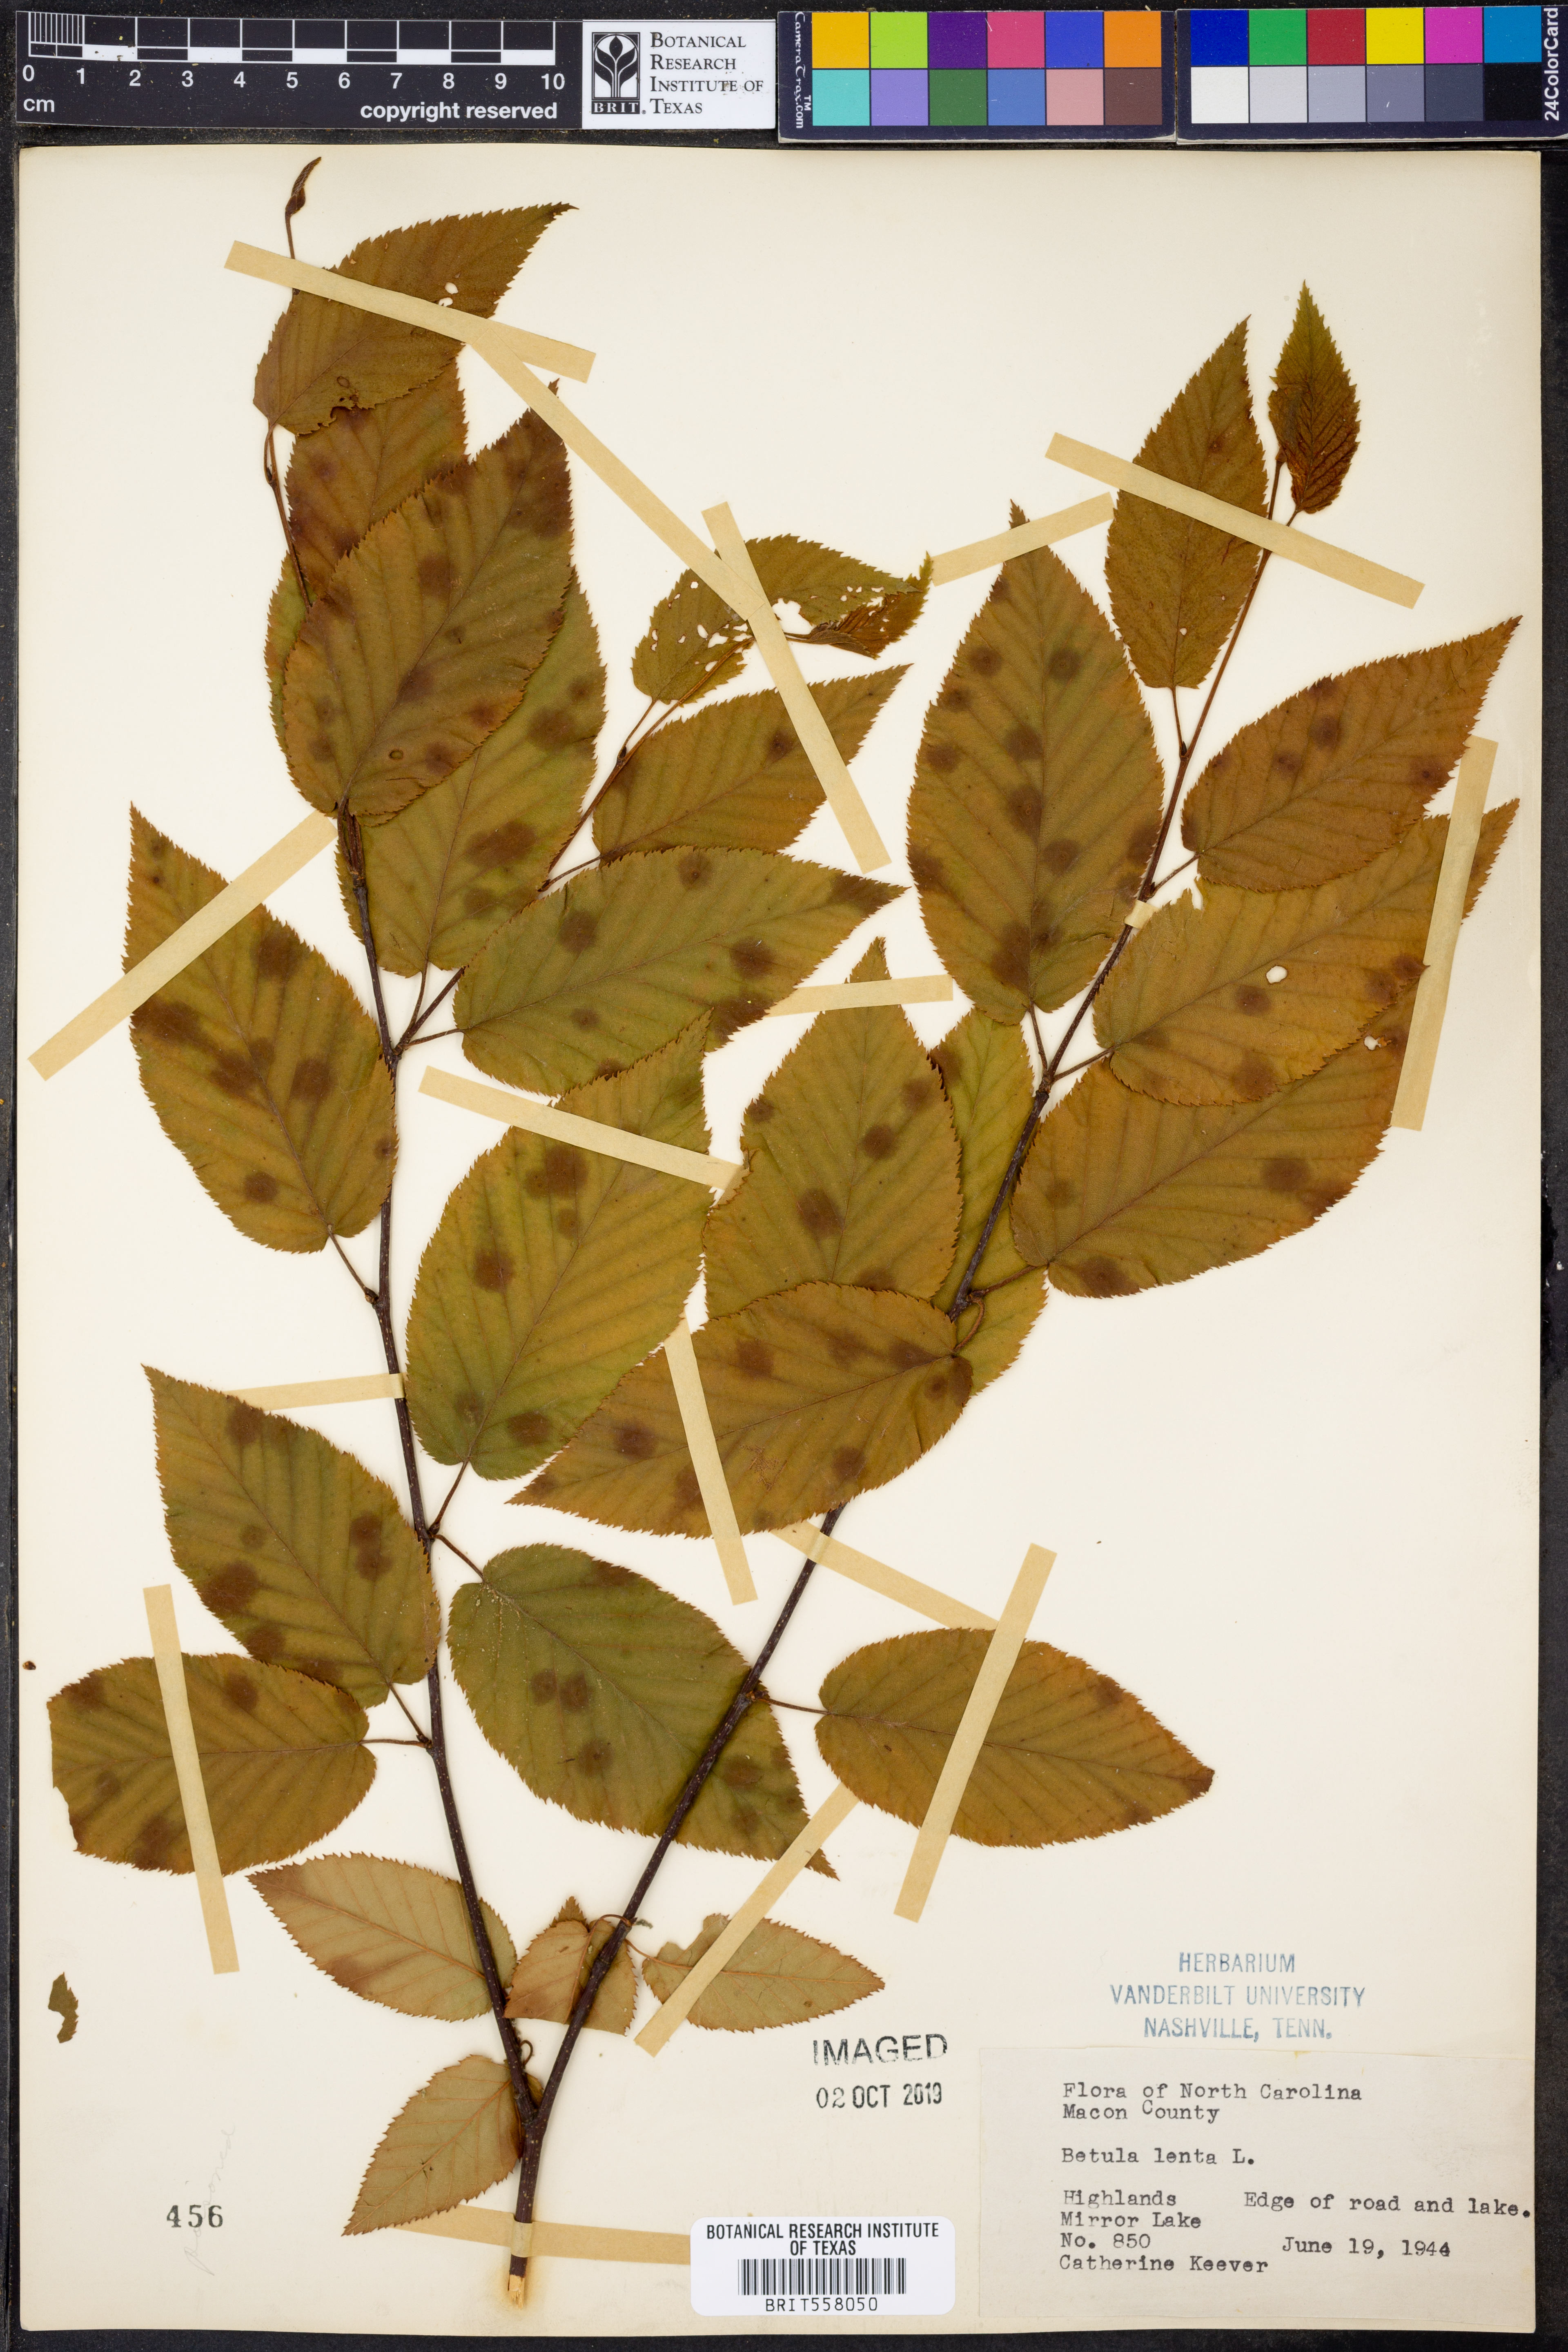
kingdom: Plantae
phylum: Tracheophyta
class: Magnoliopsida
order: Fagales
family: Betulaceae
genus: Betula
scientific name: Betula lenta
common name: Black birch
